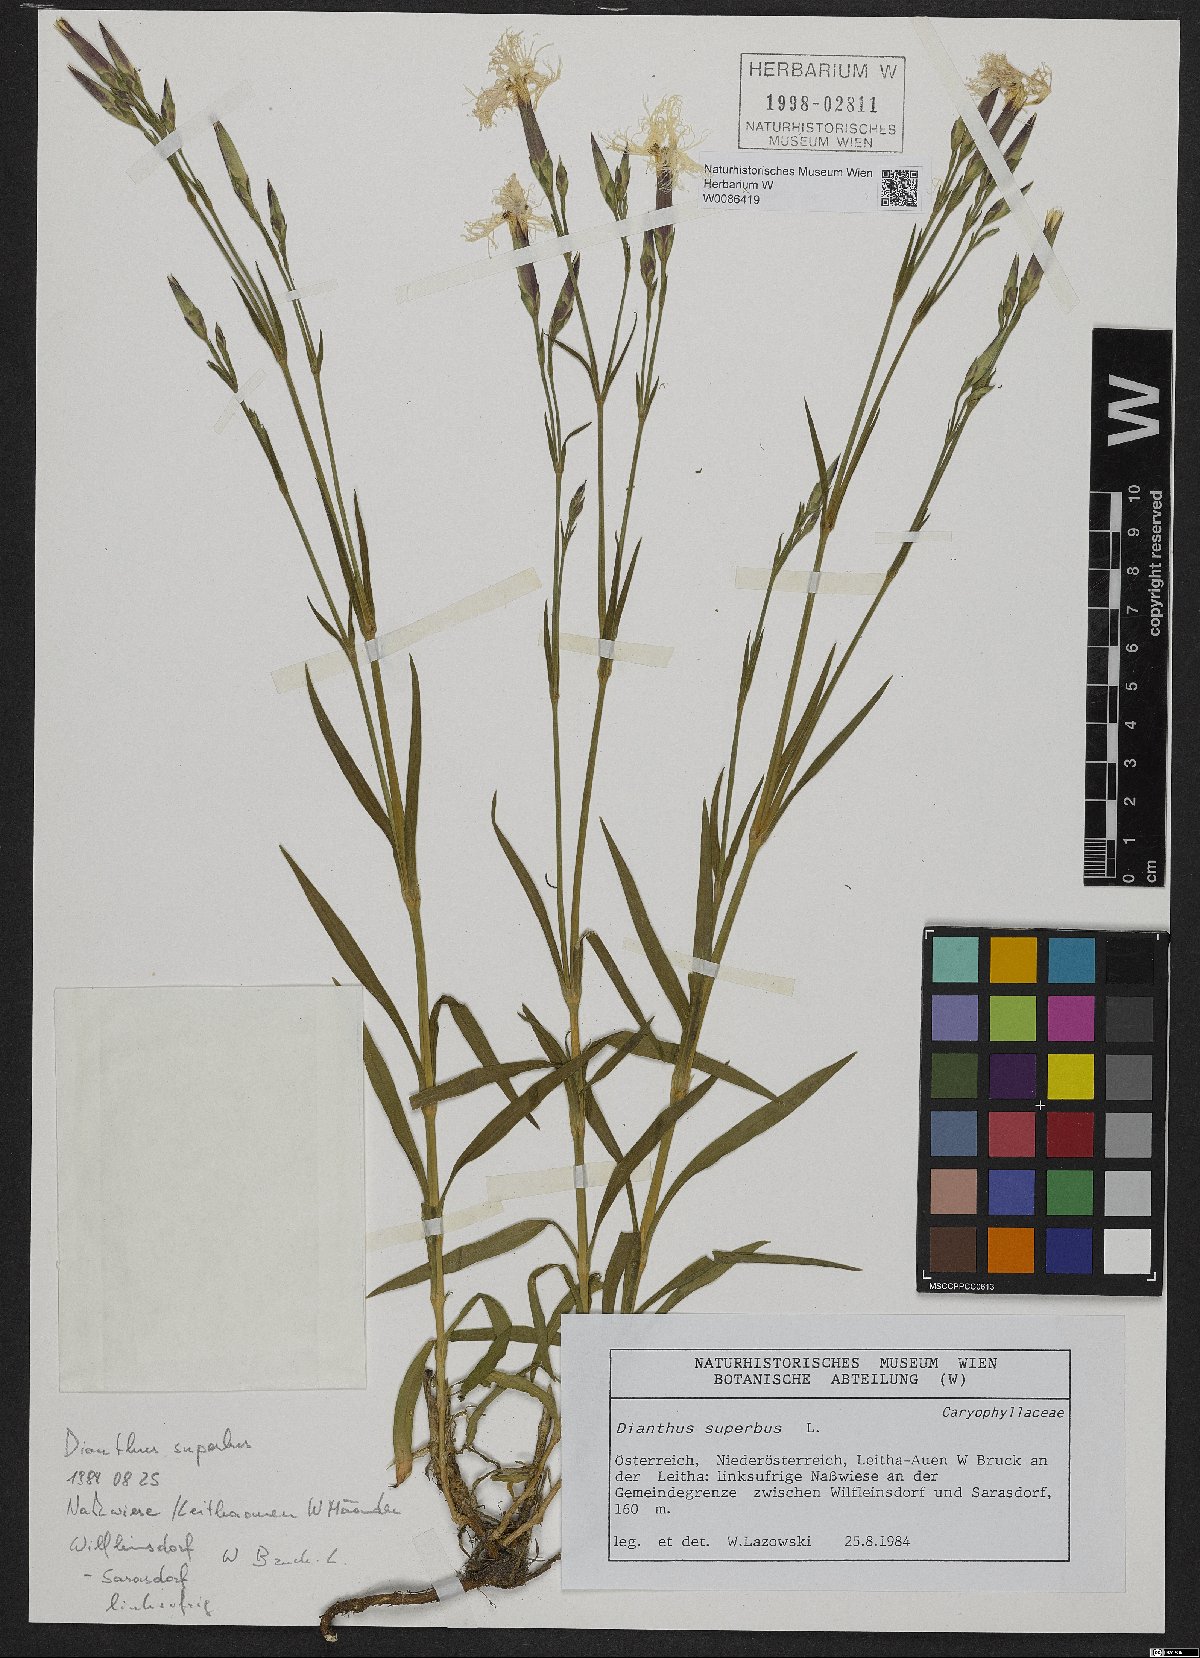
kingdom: Plantae
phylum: Tracheophyta
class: Magnoliopsida
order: Caryophyllales
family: Caryophyllaceae
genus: Dianthus
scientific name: Dianthus superbus
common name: Fringed pink
